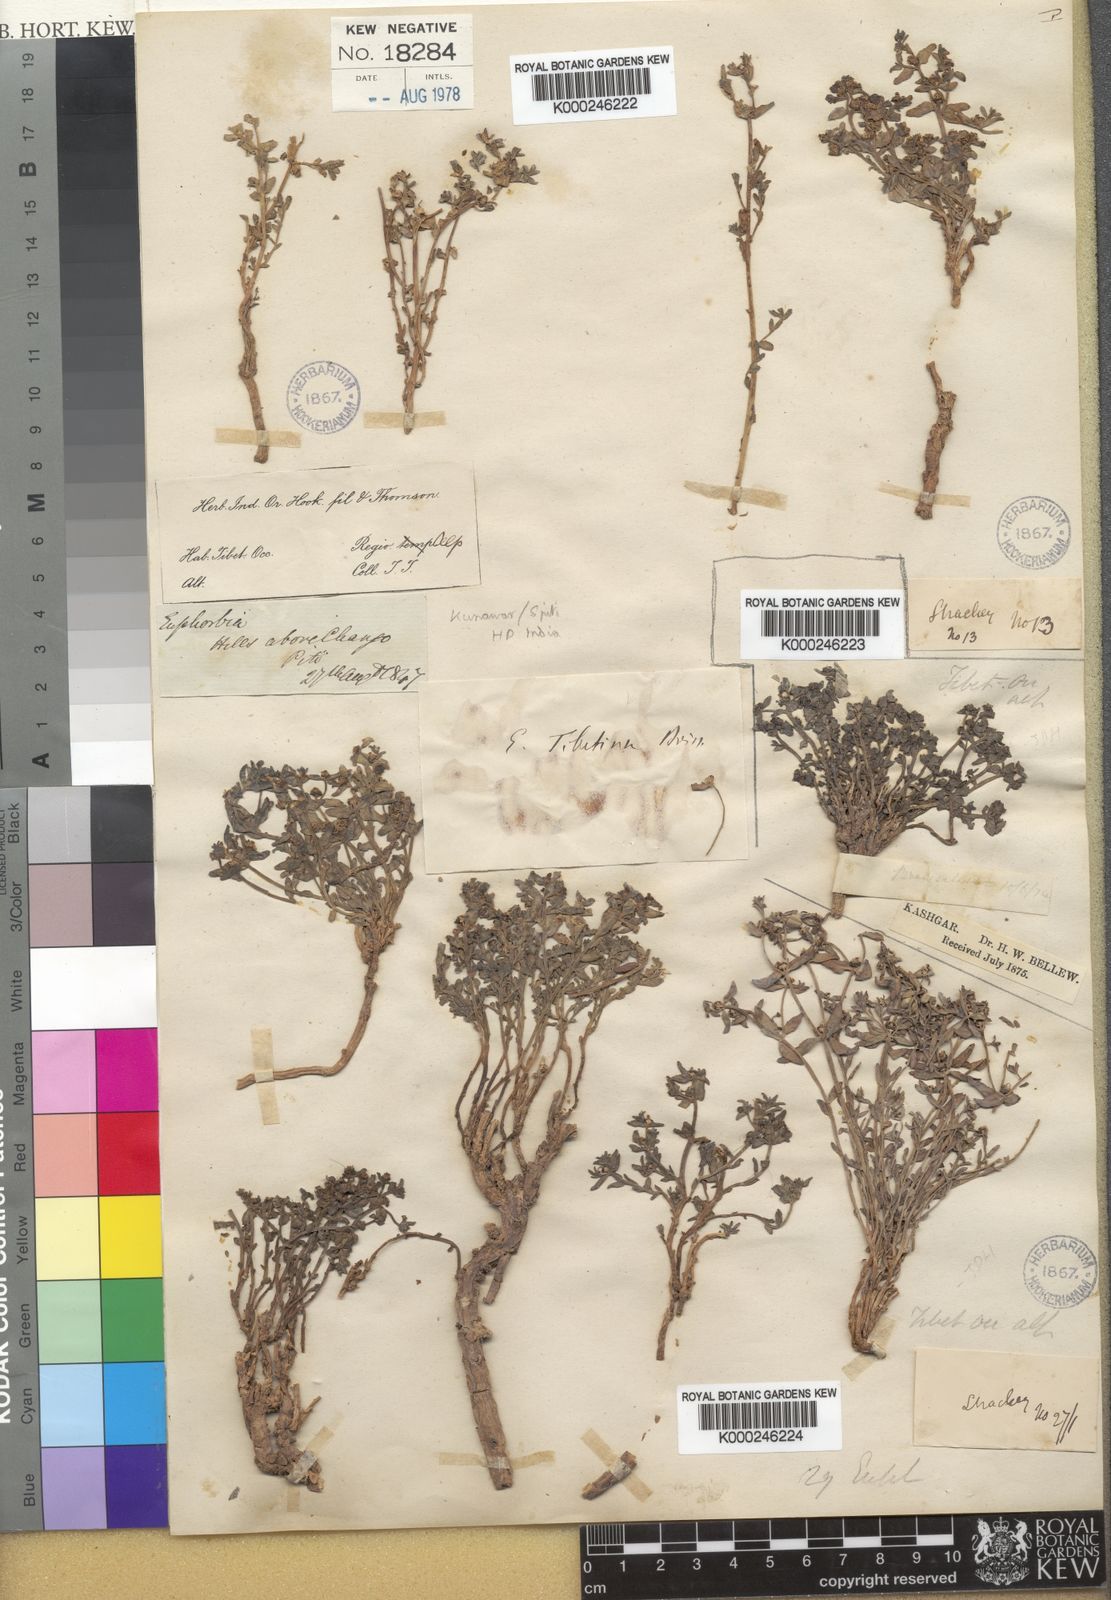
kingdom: Plantae
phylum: Tracheophyta
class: Magnoliopsida
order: Malpighiales
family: Euphorbiaceae
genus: Euphorbia
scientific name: Euphorbia tibetica
